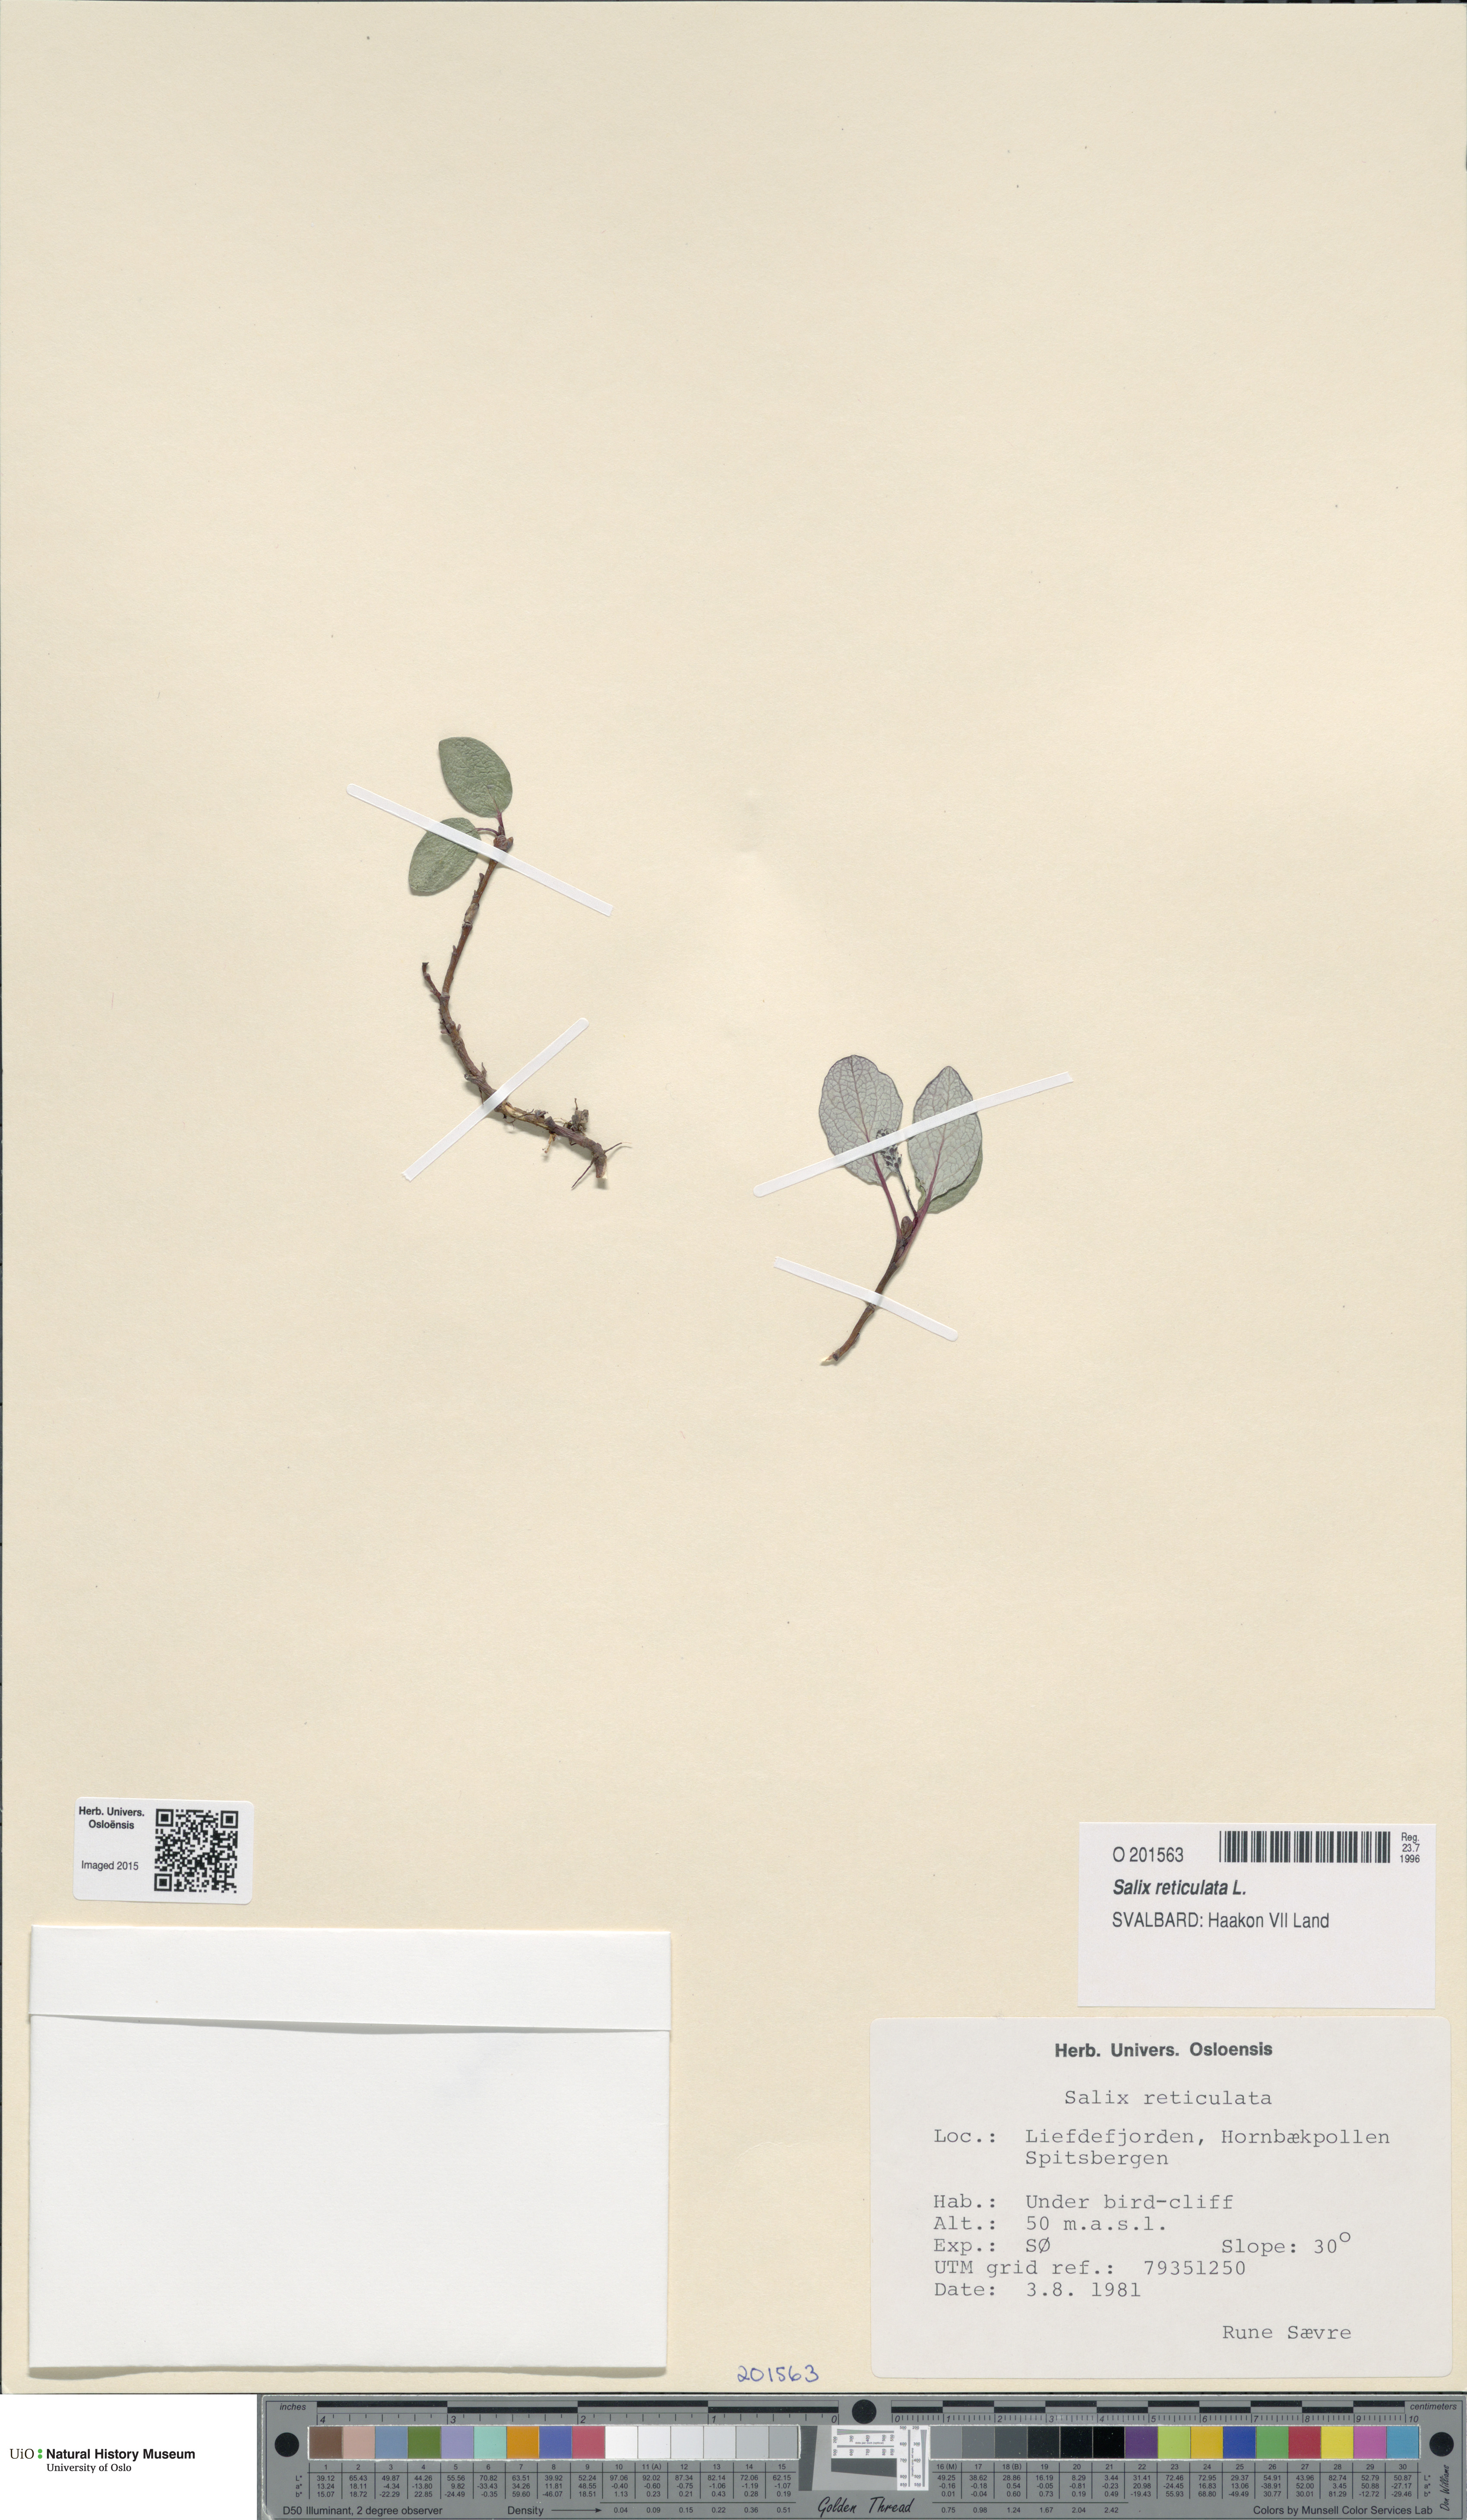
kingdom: Plantae
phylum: Tracheophyta
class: Magnoliopsida
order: Malpighiales
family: Salicaceae
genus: Salix
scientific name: Salix reticulata
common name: Net-leaved willow
